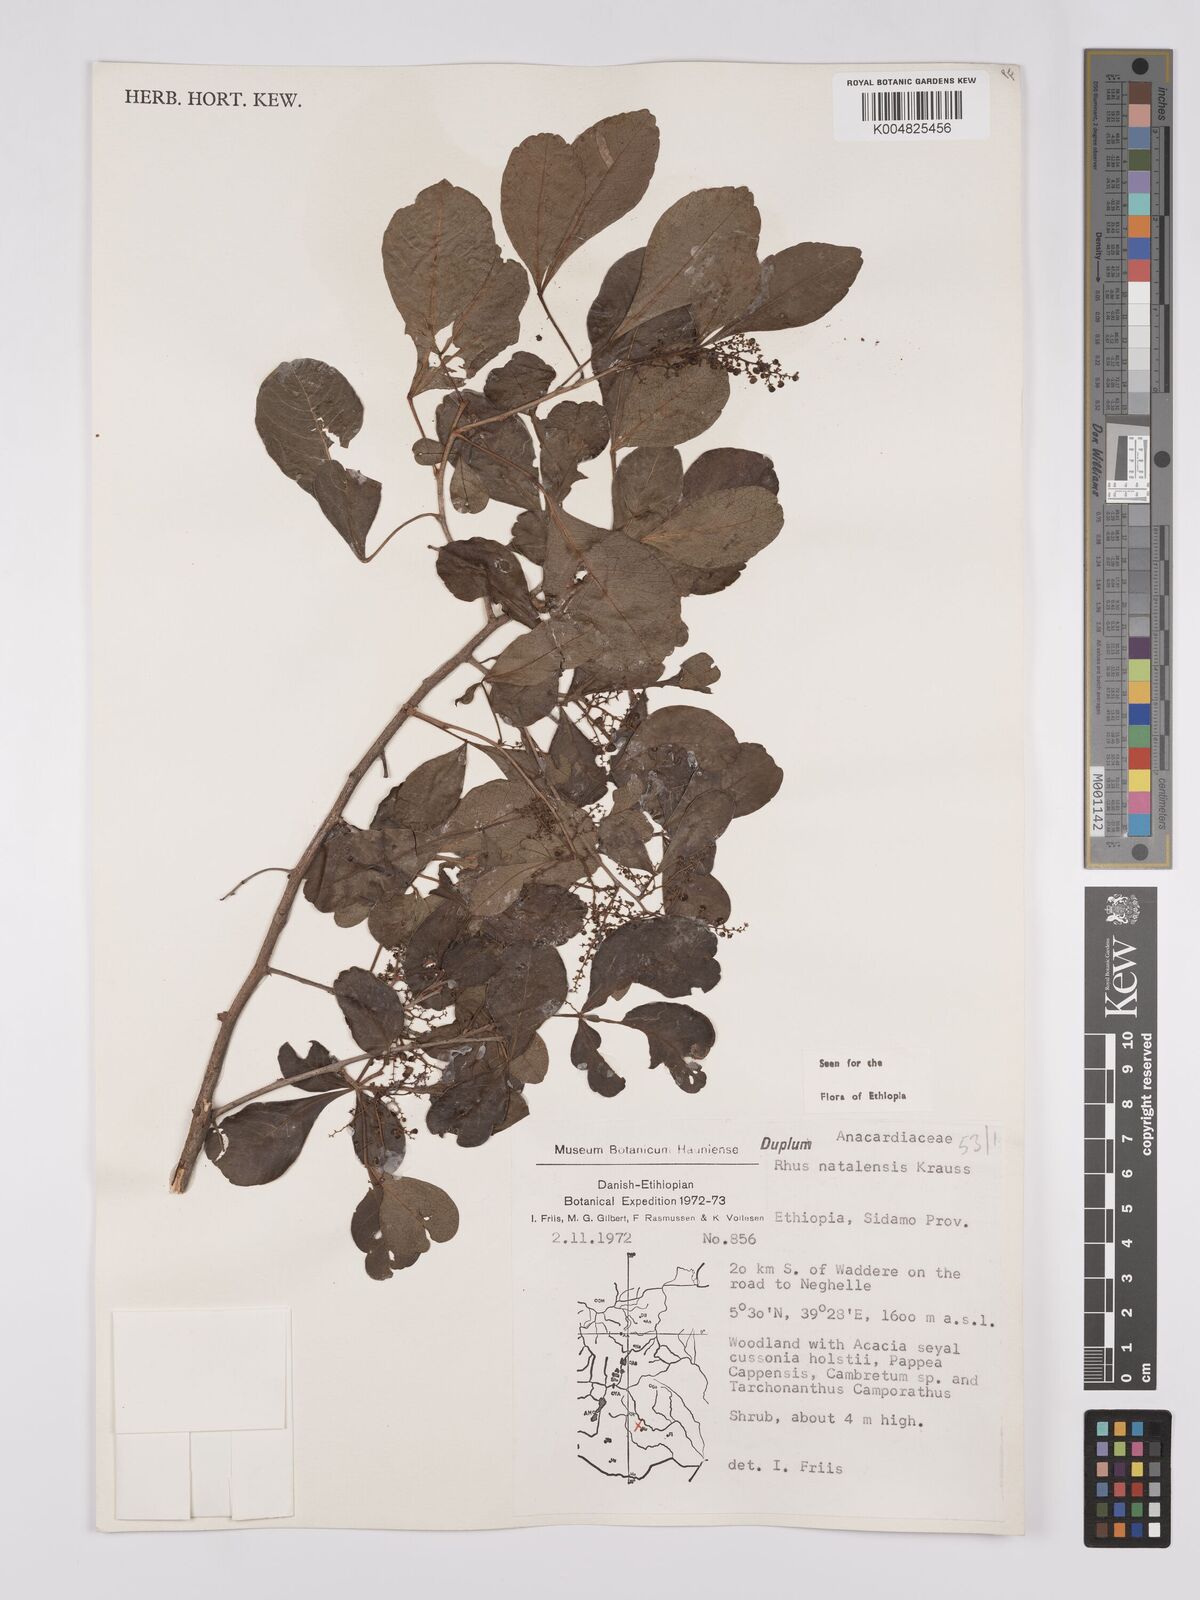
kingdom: Plantae
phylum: Tracheophyta
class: Magnoliopsida
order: Sapindales
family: Anacardiaceae
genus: Searsia
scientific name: Searsia natalensis
